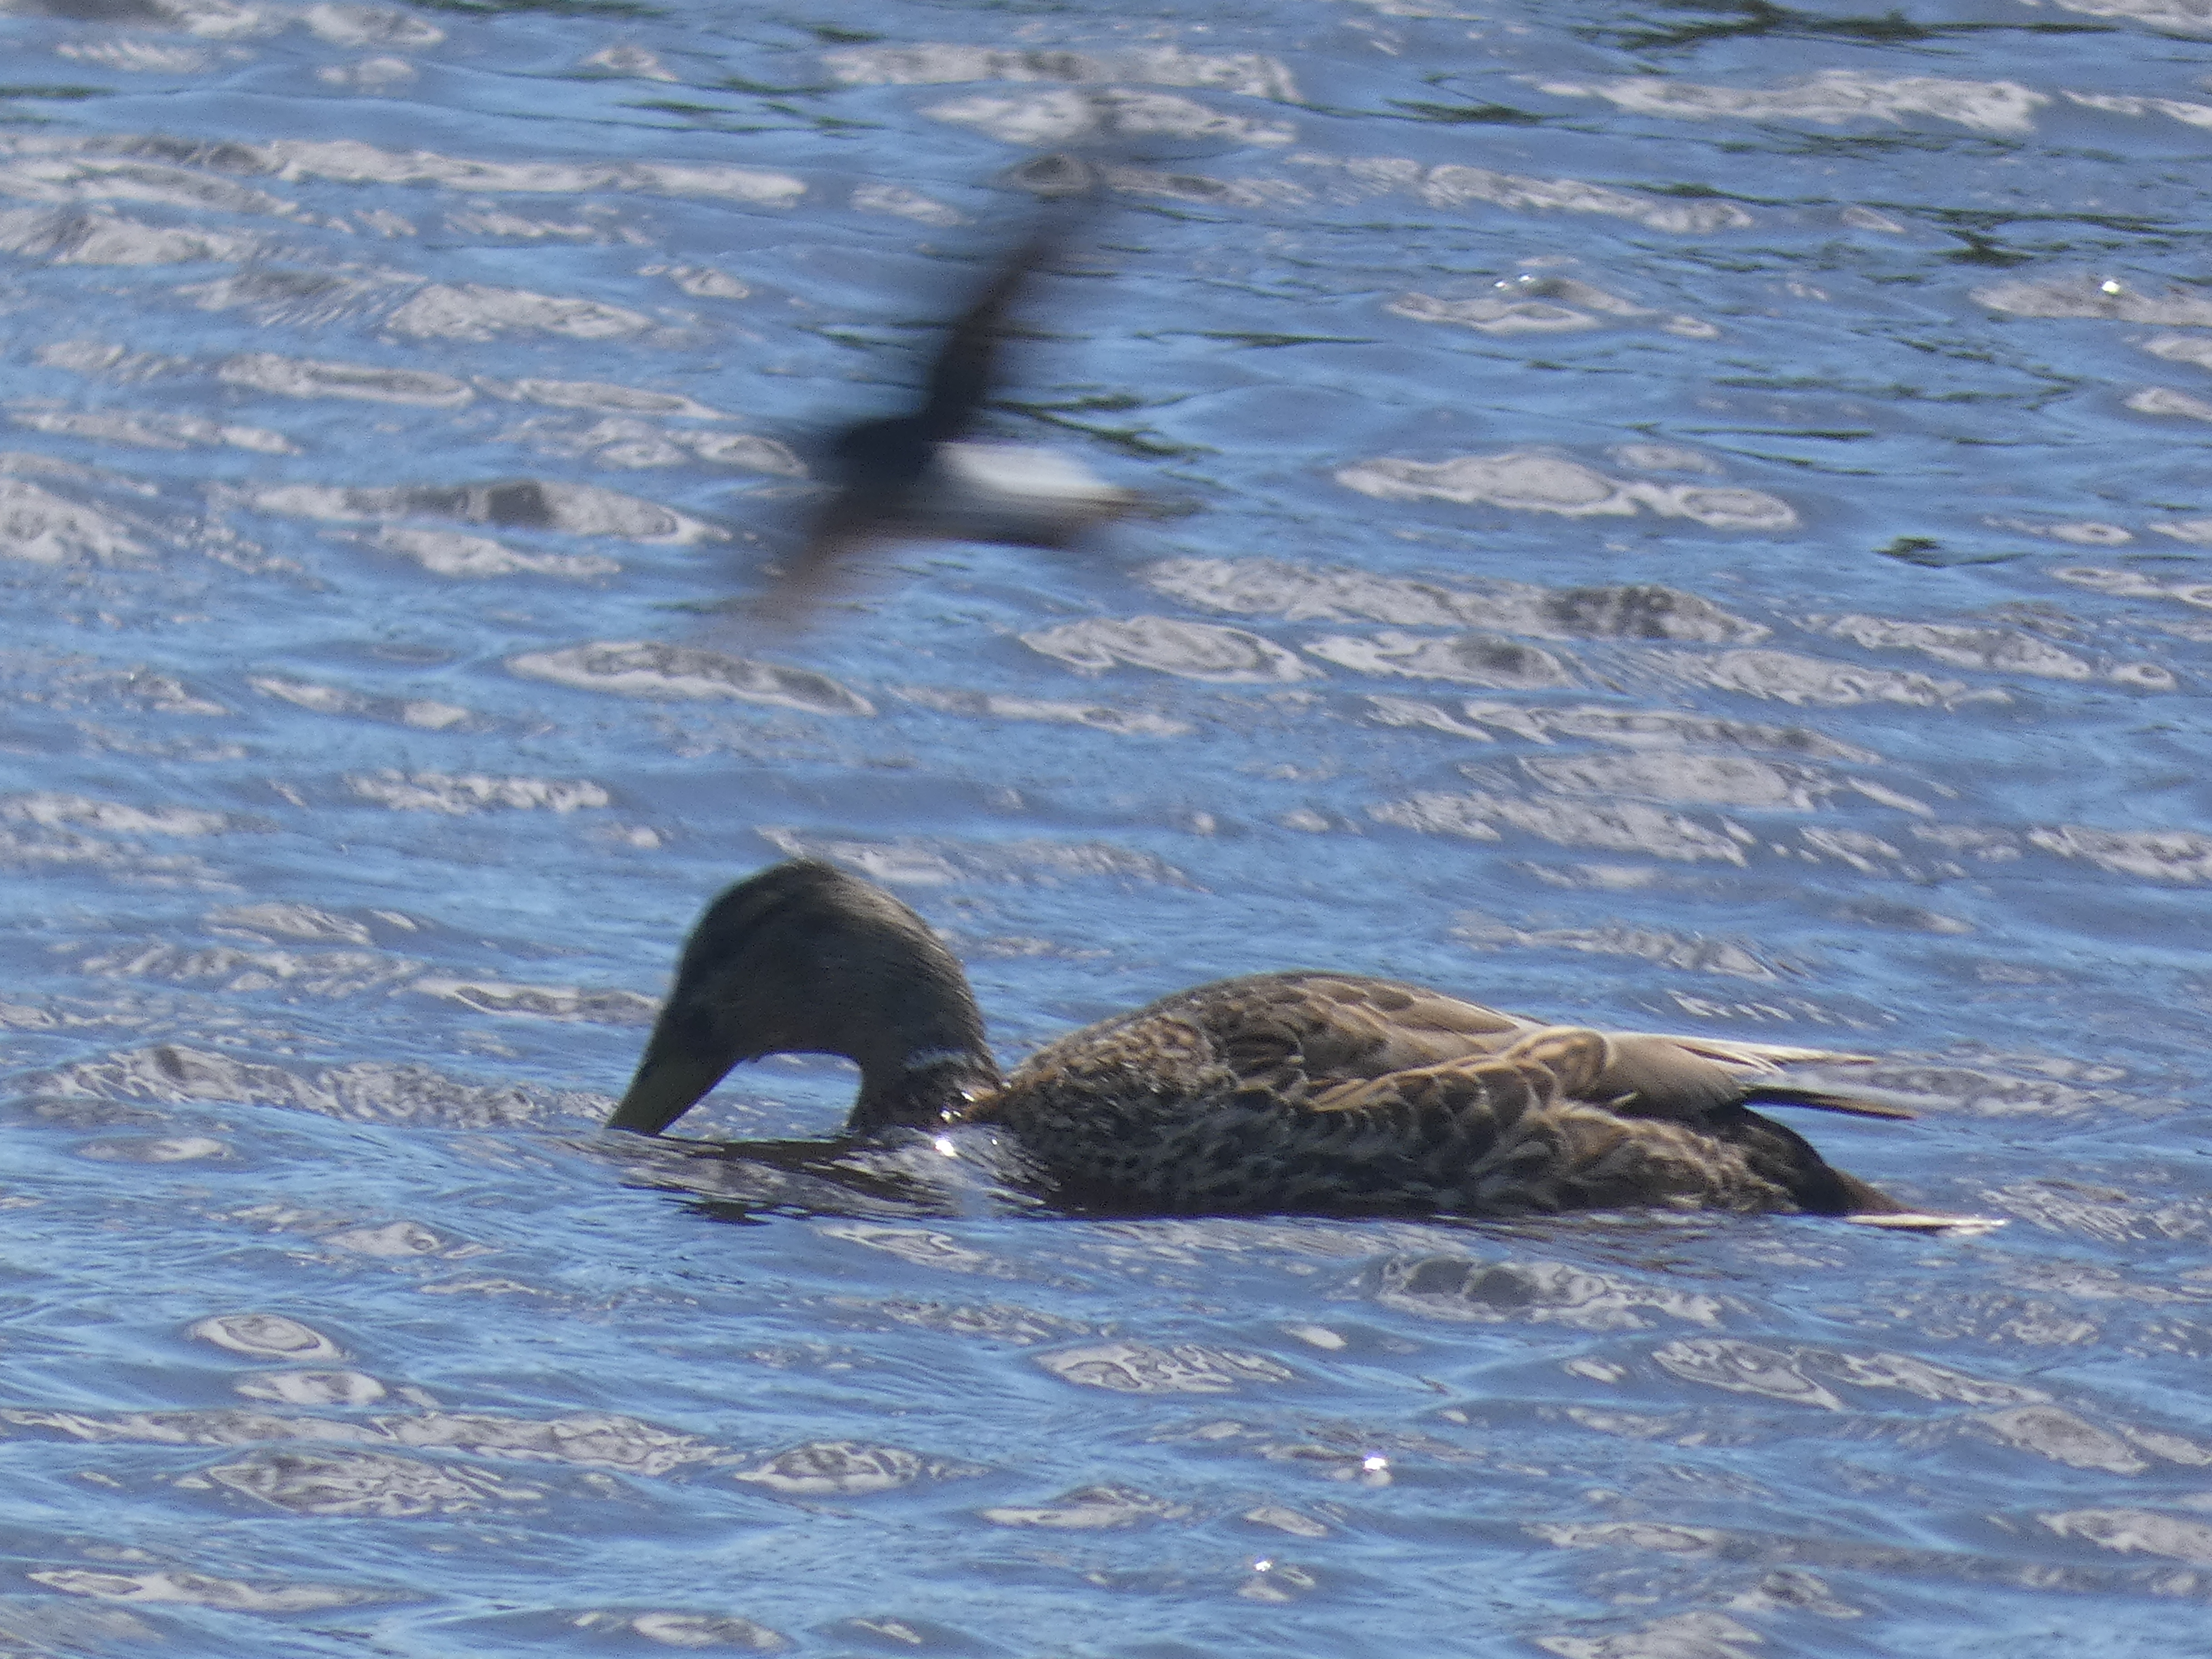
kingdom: Animalia
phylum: Chordata
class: Aves
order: Anseriformes
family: Anatidae
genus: Anas
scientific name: Anas platyrhynchos
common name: Gråand
